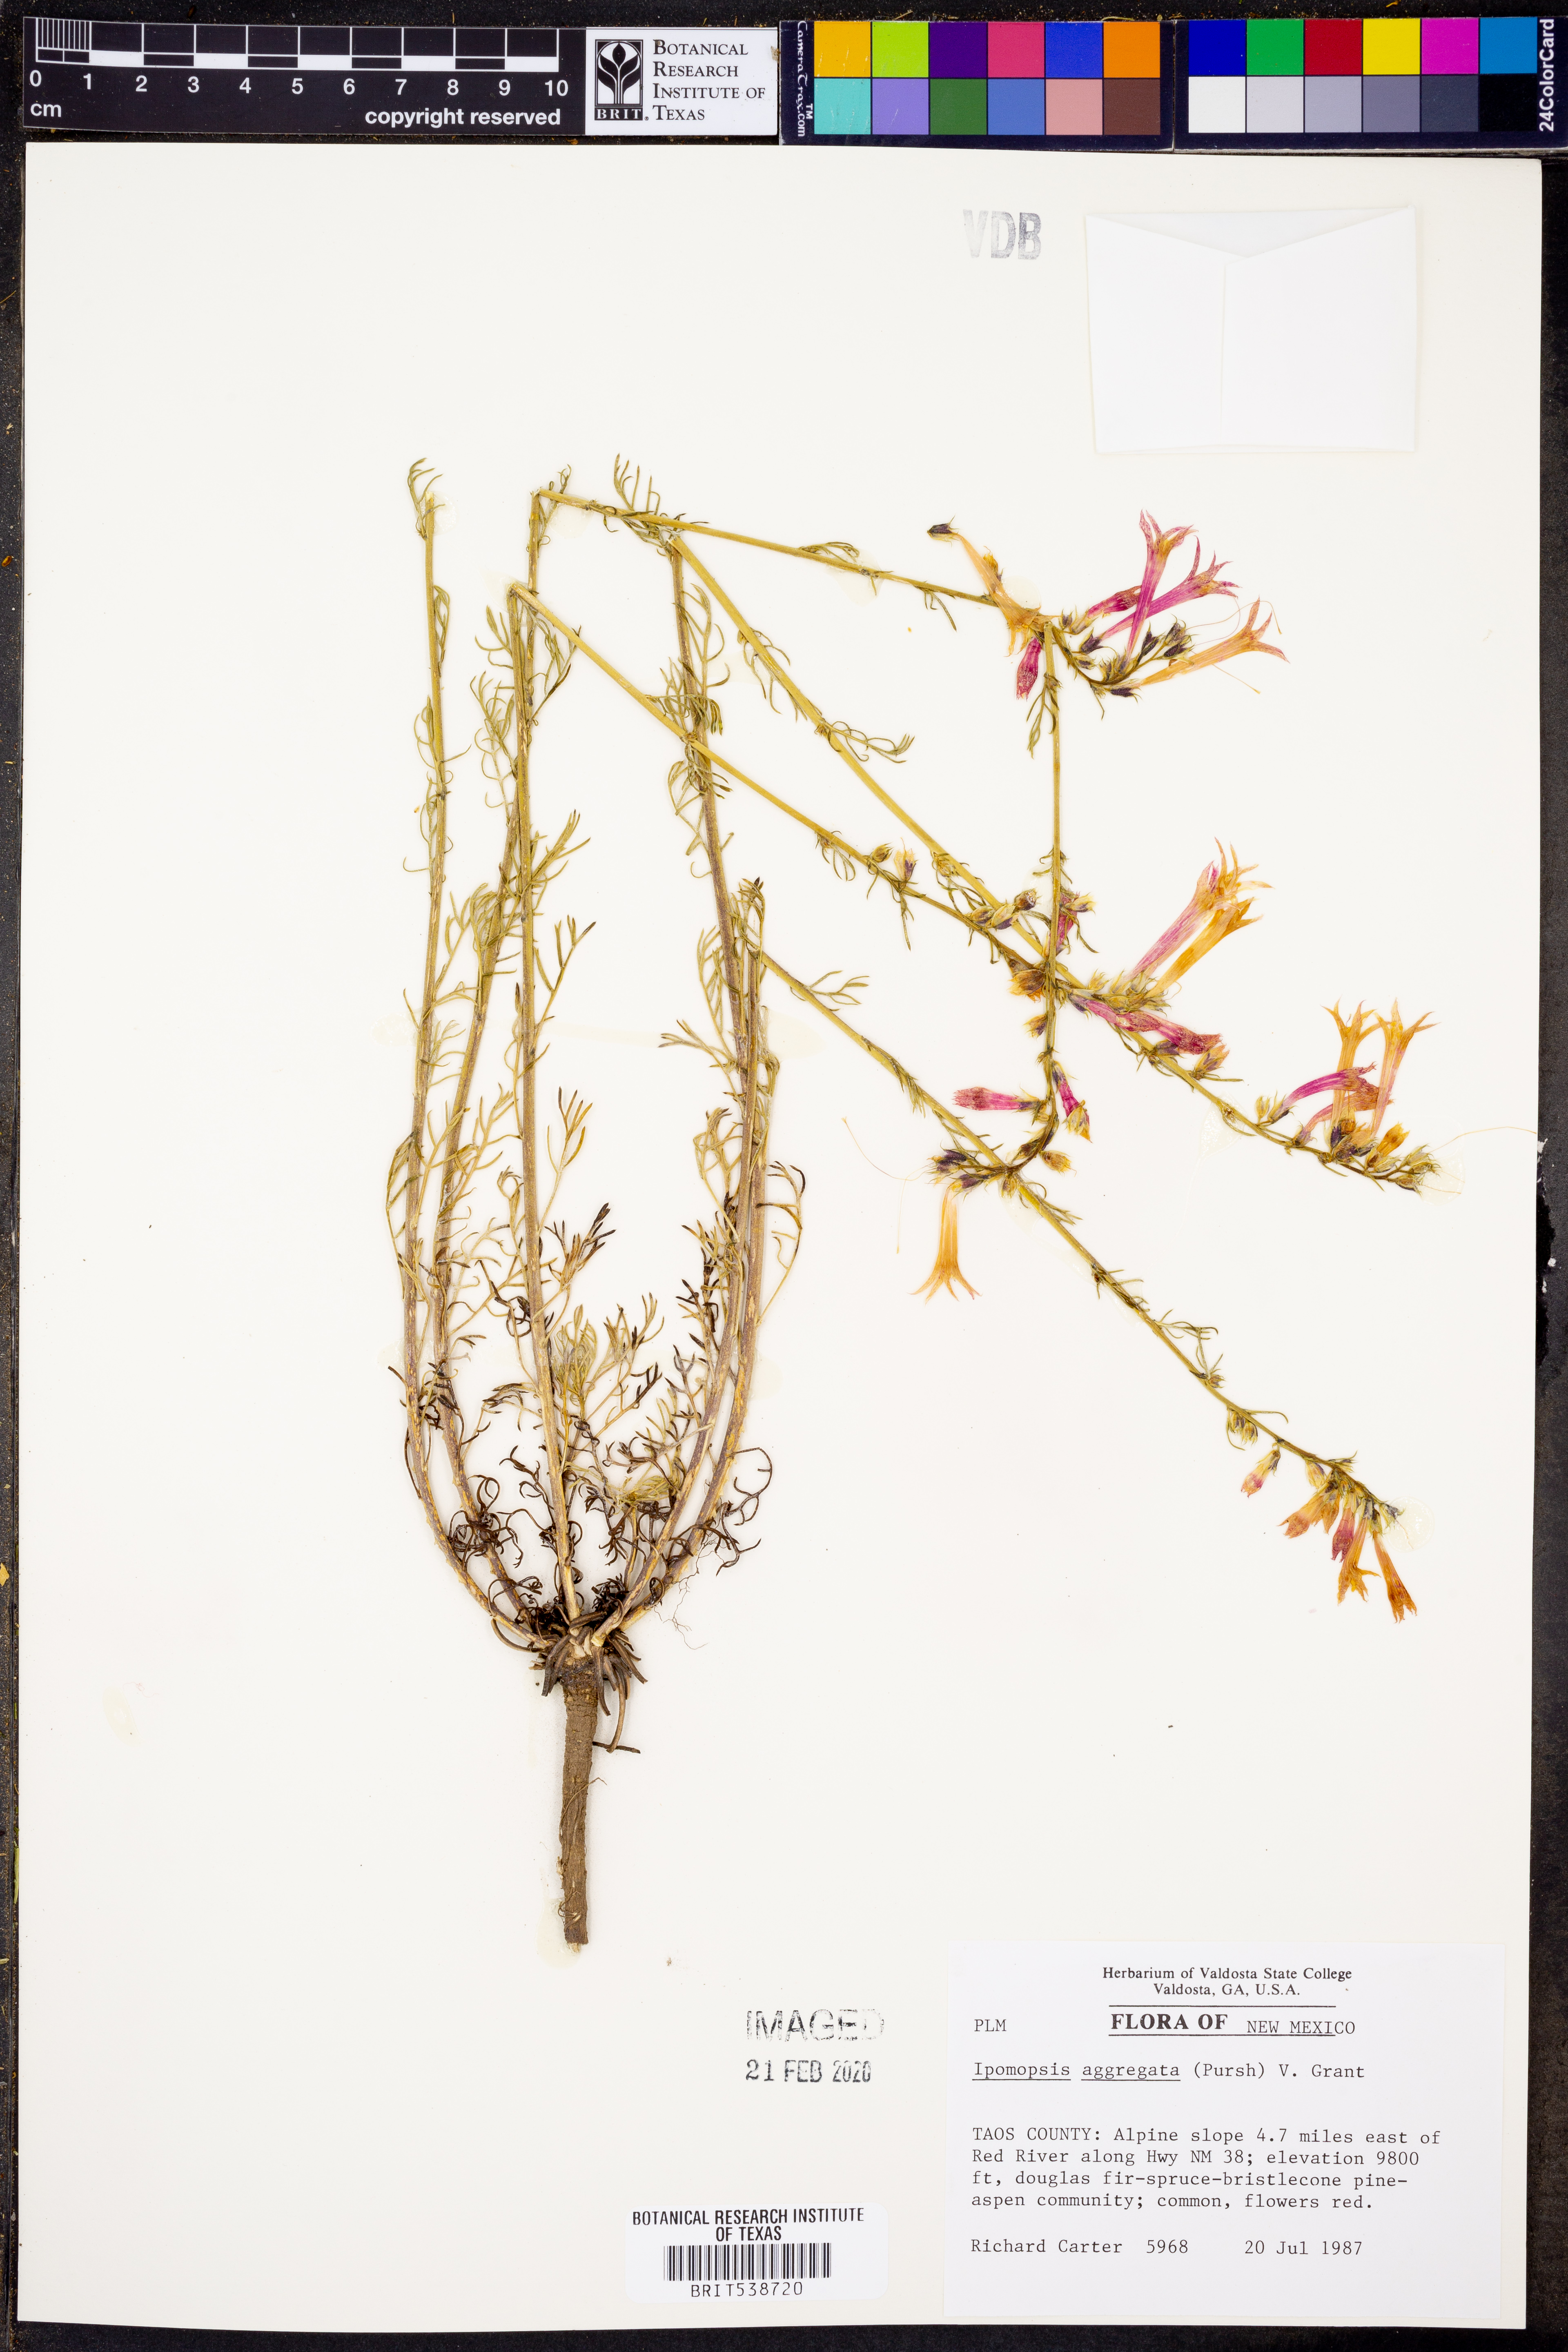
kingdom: Plantae
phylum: Tracheophyta
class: Magnoliopsida
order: Ericales
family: Polemoniaceae
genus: Ipomopsis
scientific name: Ipomopsis aggregata
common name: Scarlet gilia
